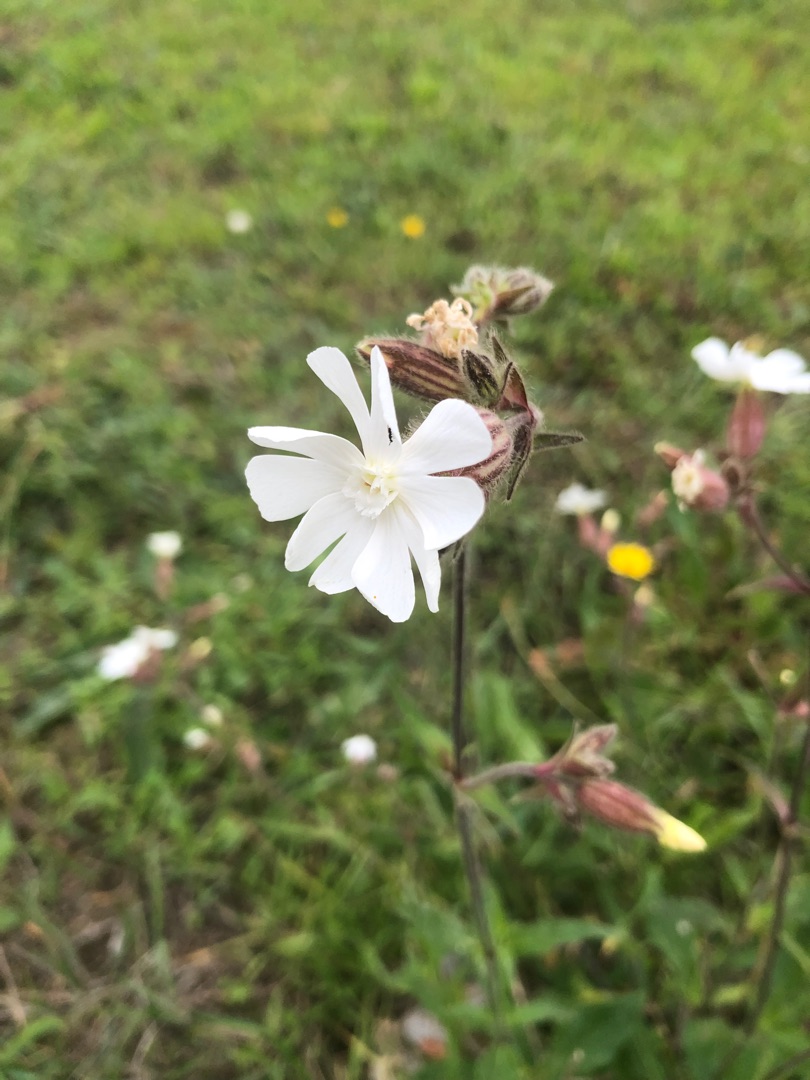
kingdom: Plantae
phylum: Tracheophyta
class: Magnoliopsida
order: Caryophyllales
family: Caryophyllaceae
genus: Silene
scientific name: Silene latifolia
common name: Aftenpragtstjerne
